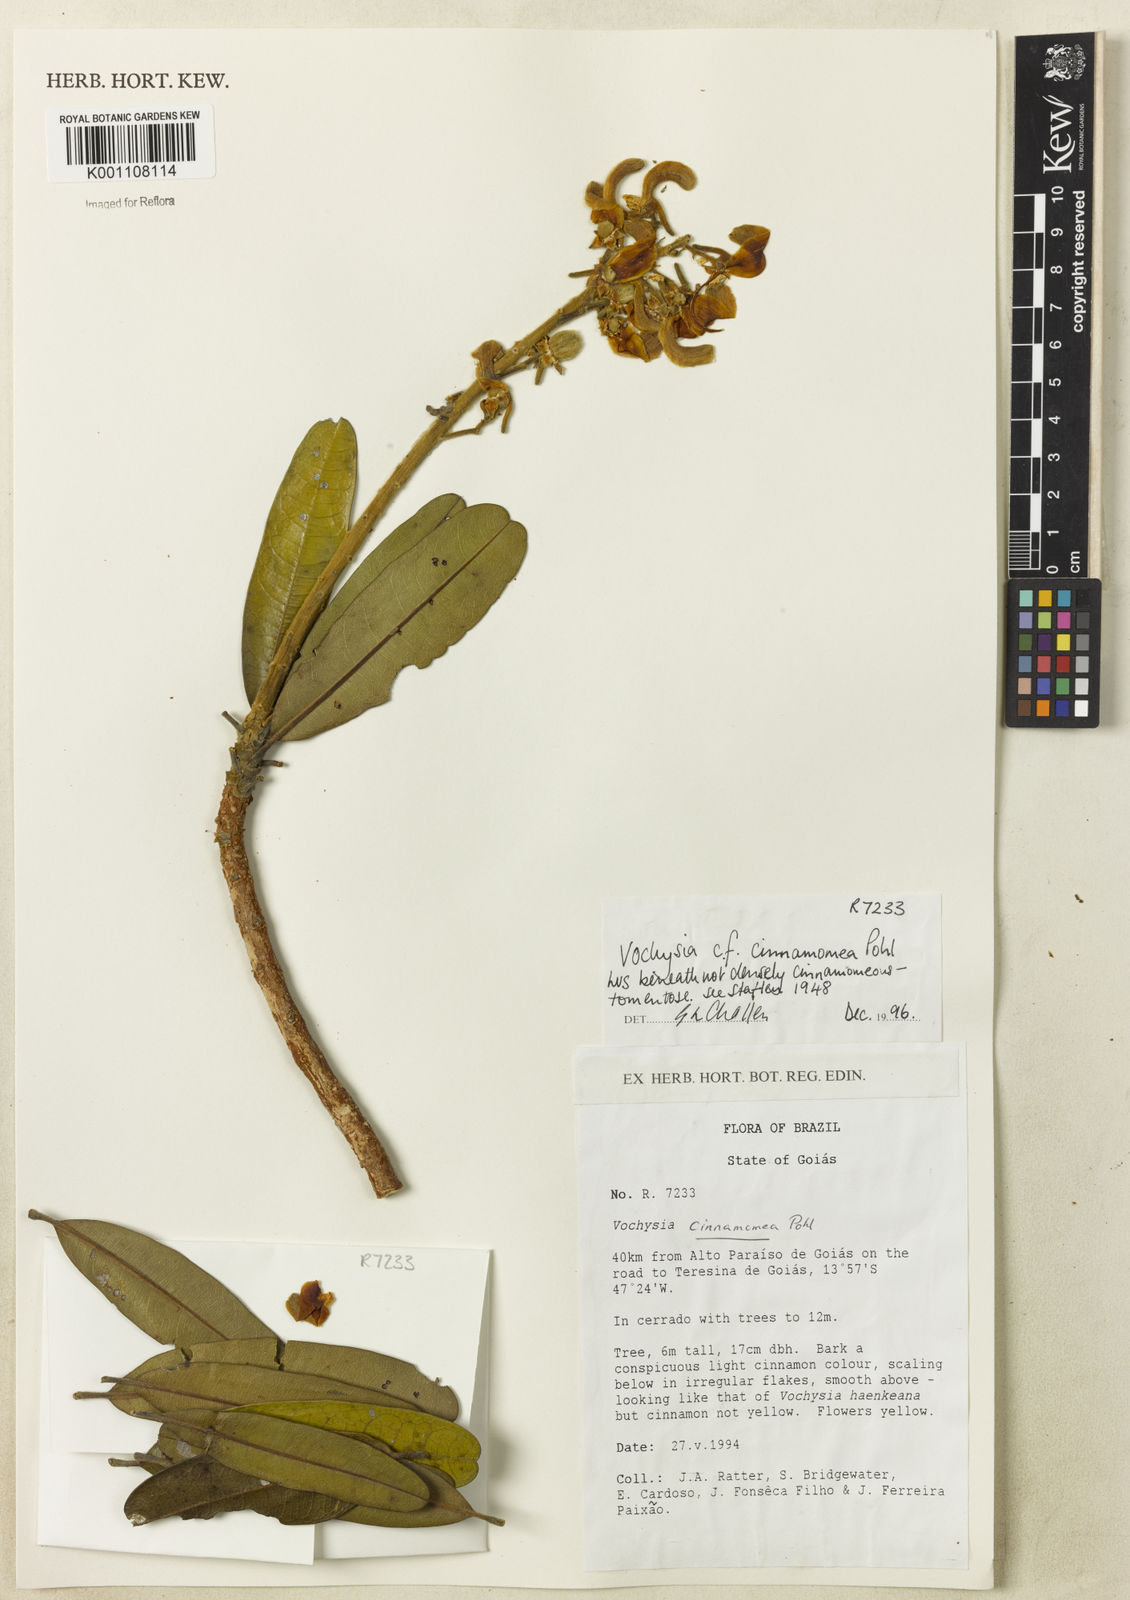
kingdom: Plantae
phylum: Tracheophyta
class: Magnoliopsida
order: Myrtales
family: Vochysiaceae
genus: Vochysia
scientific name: Vochysia cinnamomea
